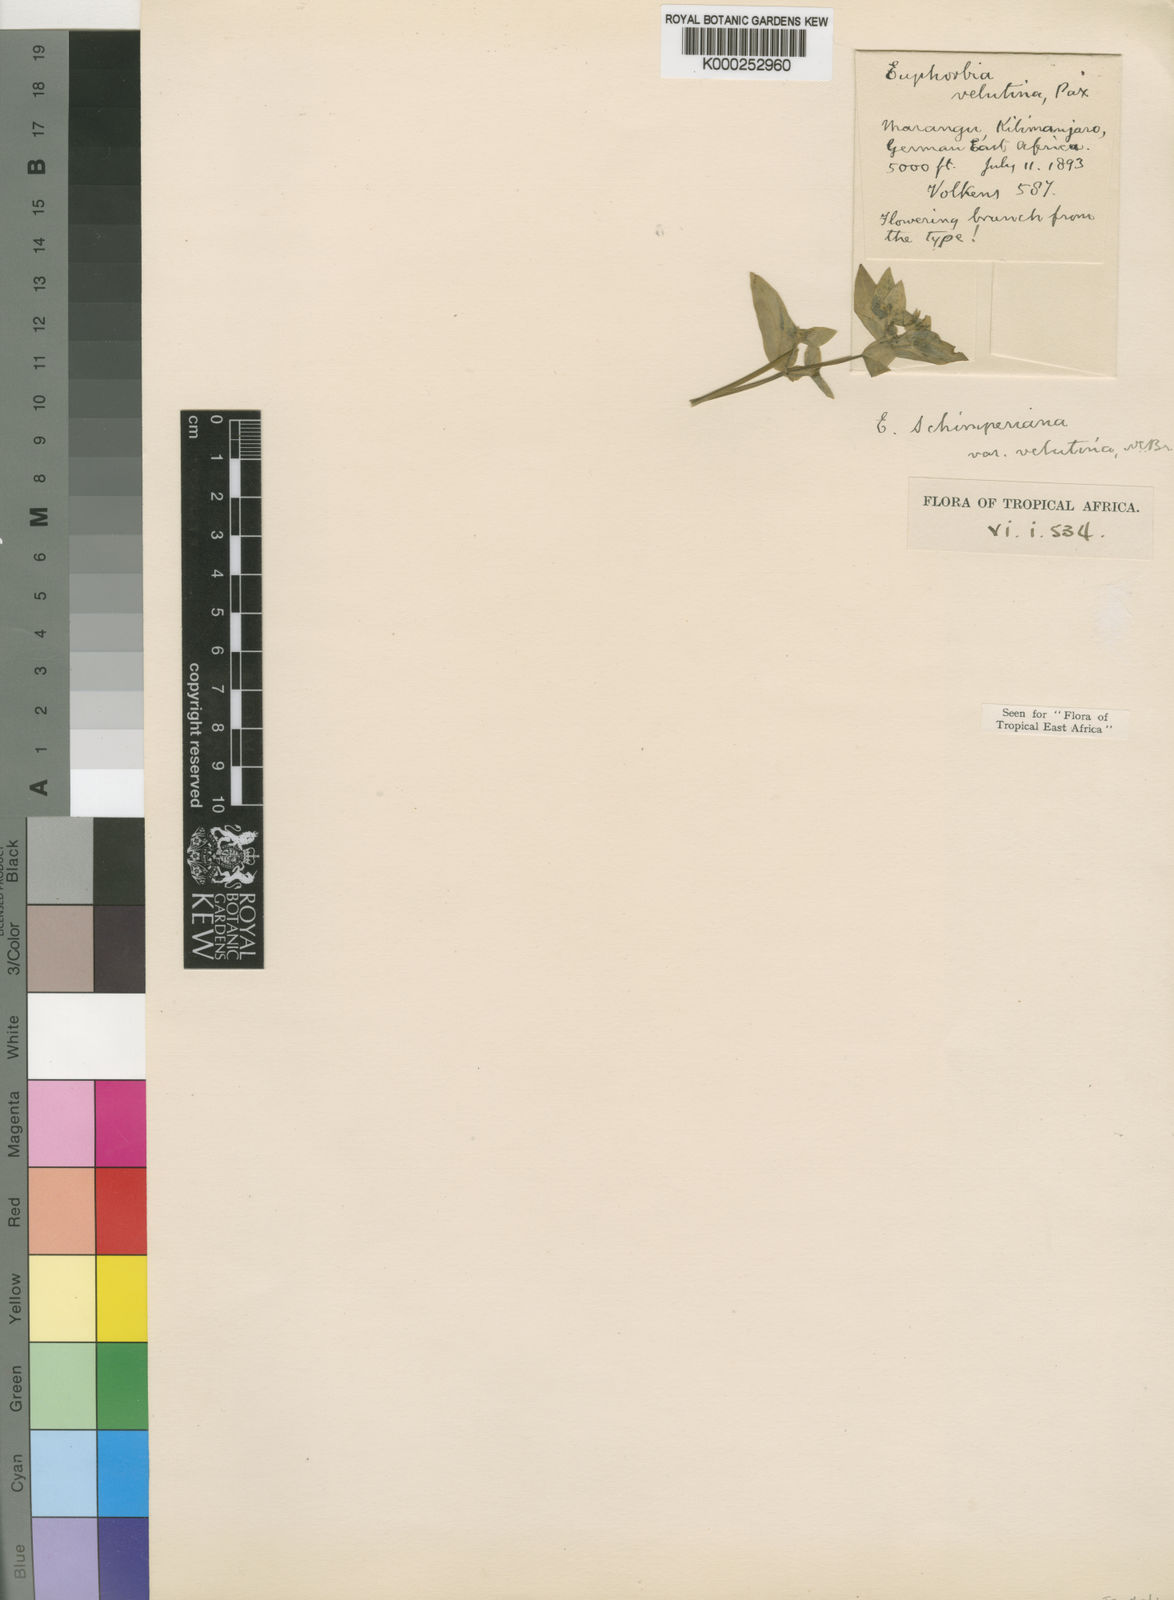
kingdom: Plantae
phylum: Tracheophyta
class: Magnoliopsida
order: Malpighiales
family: Euphorbiaceae
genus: Euphorbia
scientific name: Euphorbia schimperiana
